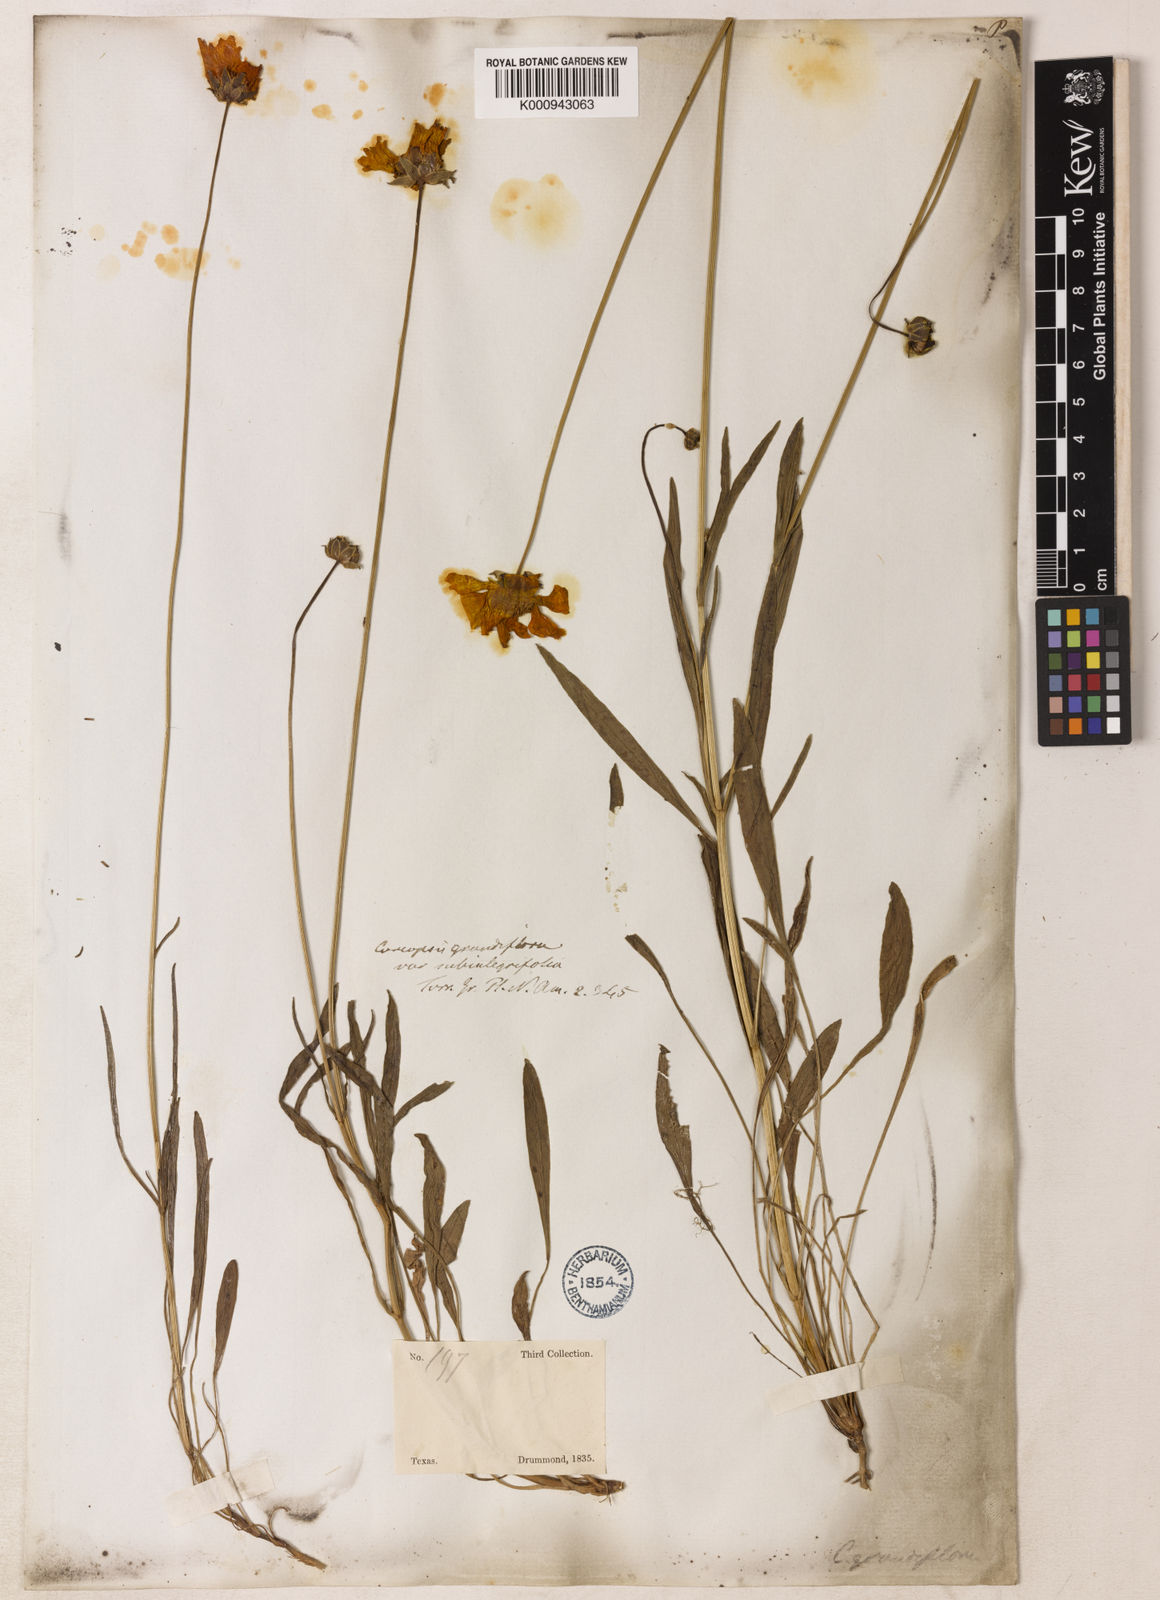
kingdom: Plantae
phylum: Tracheophyta
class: Magnoliopsida
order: Asterales
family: Asteraceae
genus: Coreopsis
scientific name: Coreopsis grandiflora
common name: Large-flowered tickseed
